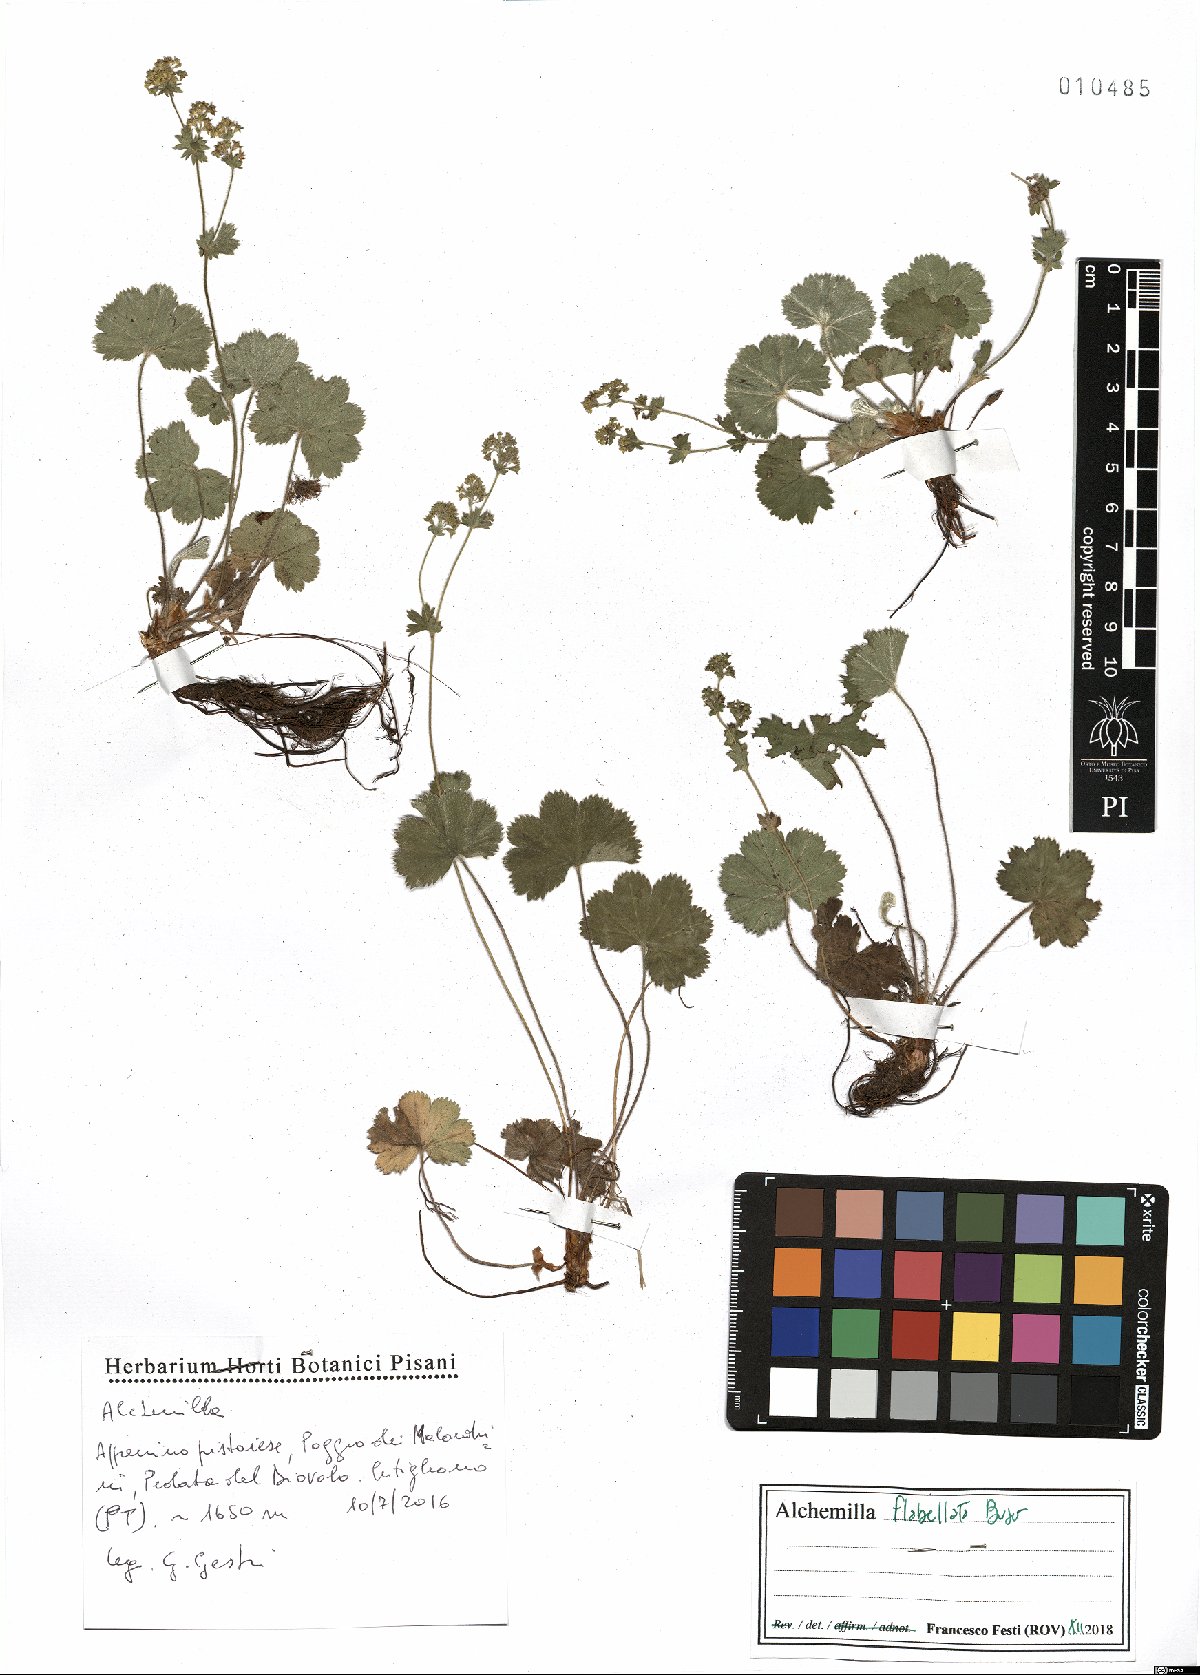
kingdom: Plantae
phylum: Tracheophyta
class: Magnoliopsida
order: Rosales
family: Rosaceae
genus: Alchemilla
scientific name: Alchemilla flabellata
